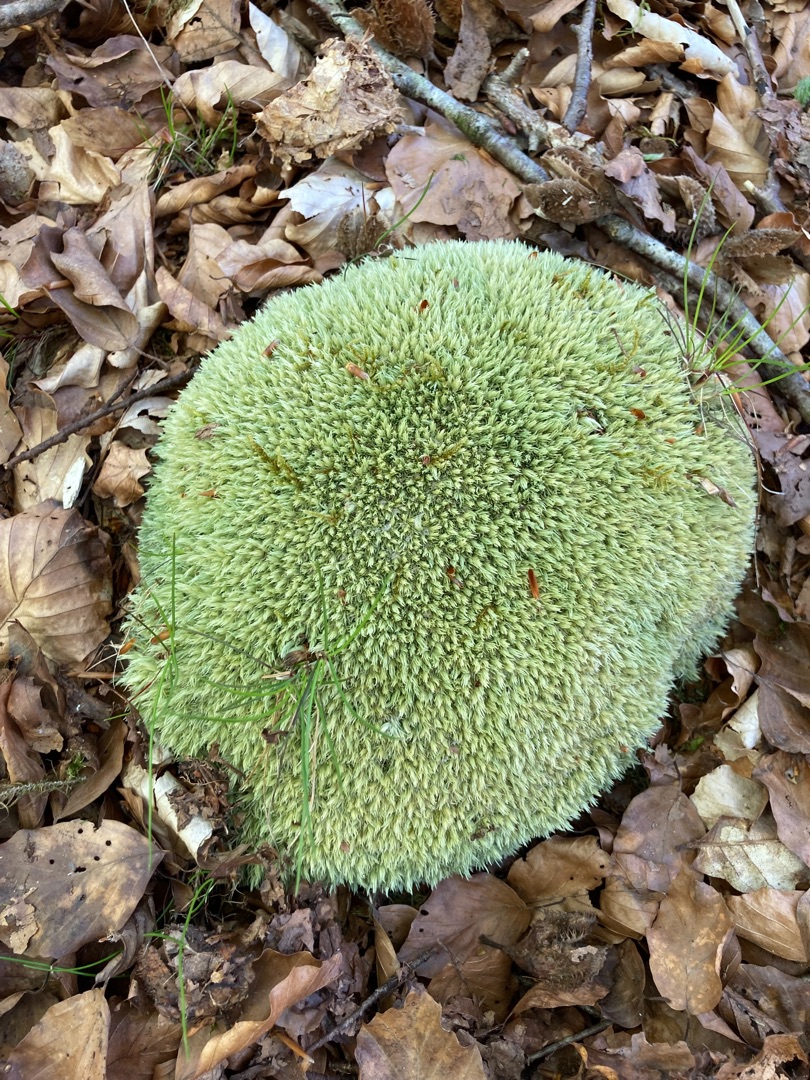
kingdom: Plantae
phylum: Bryophyta
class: Bryopsida
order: Dicranales
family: Leucobryaceae
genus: Leucobryum
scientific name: Leucobryum glaucum
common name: Almindelig hvidmos
